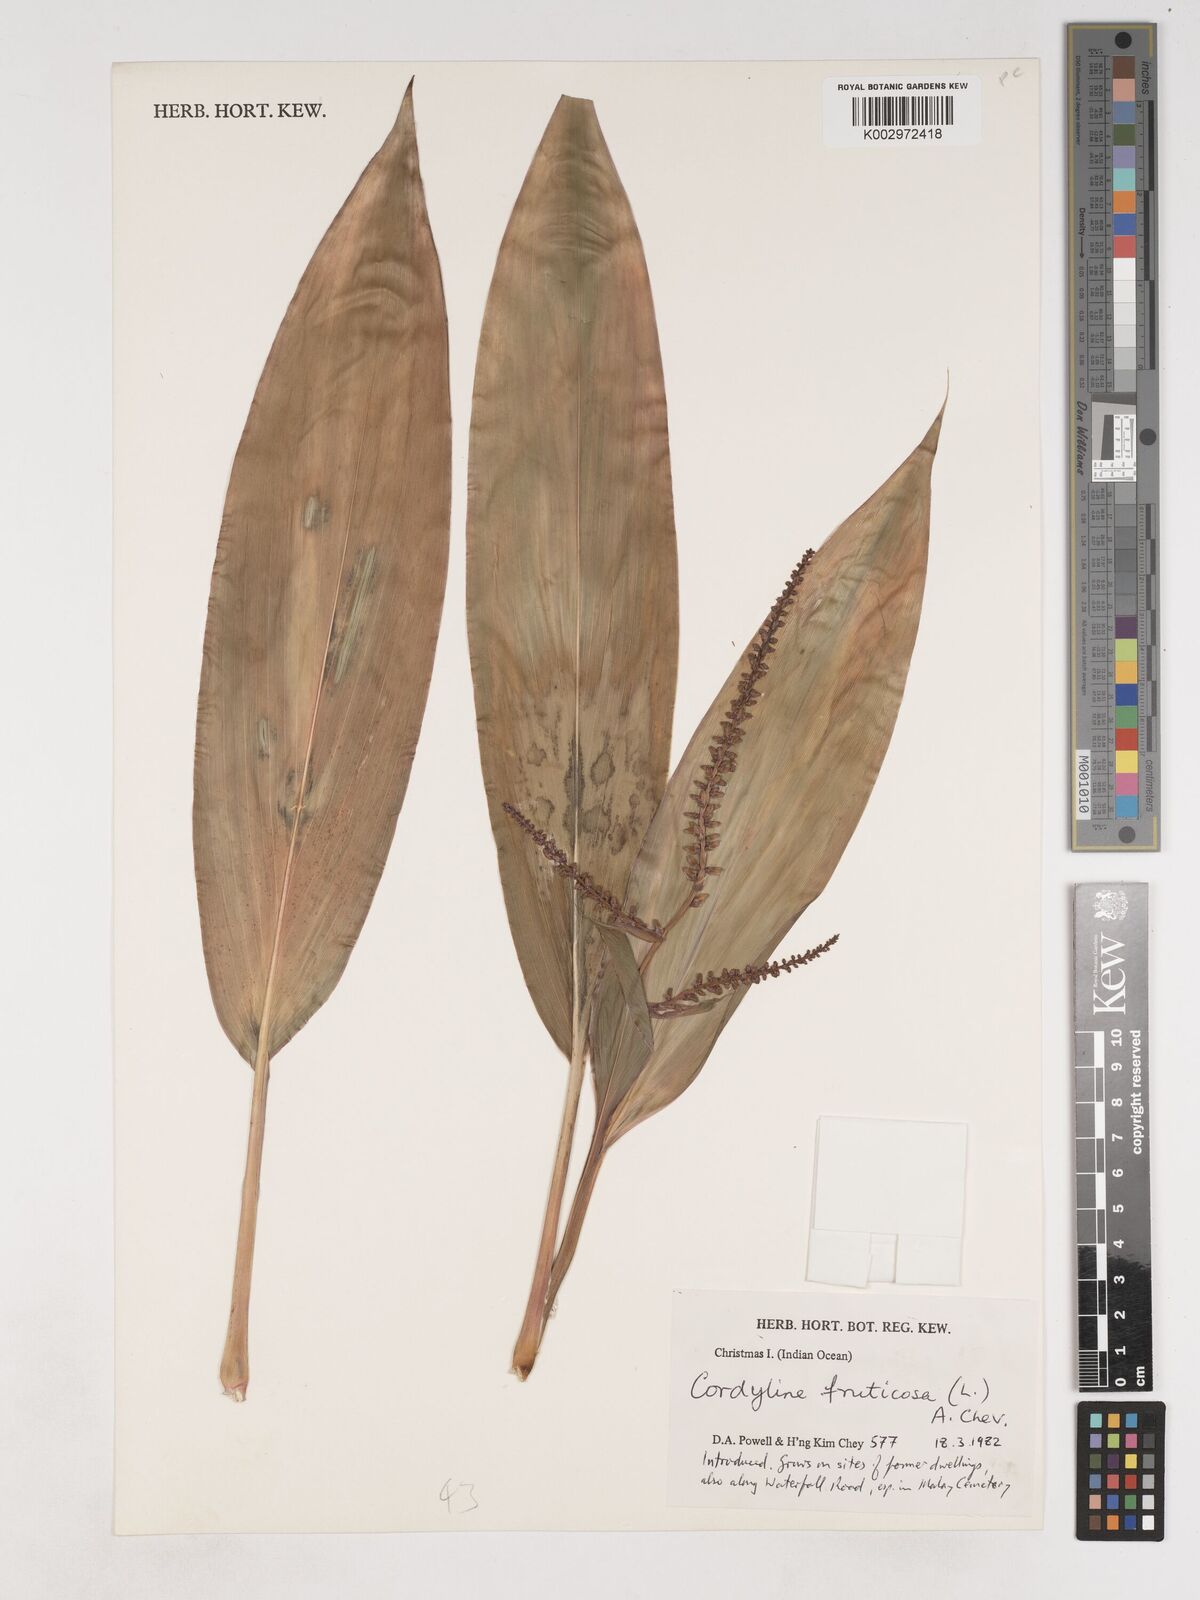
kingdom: Plantae
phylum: Tracheophyta
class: Liliopsida
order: Asparagales
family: Asparagaceae
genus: Cordyline
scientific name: Cordyline fruticosa
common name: Good-luck-plant
